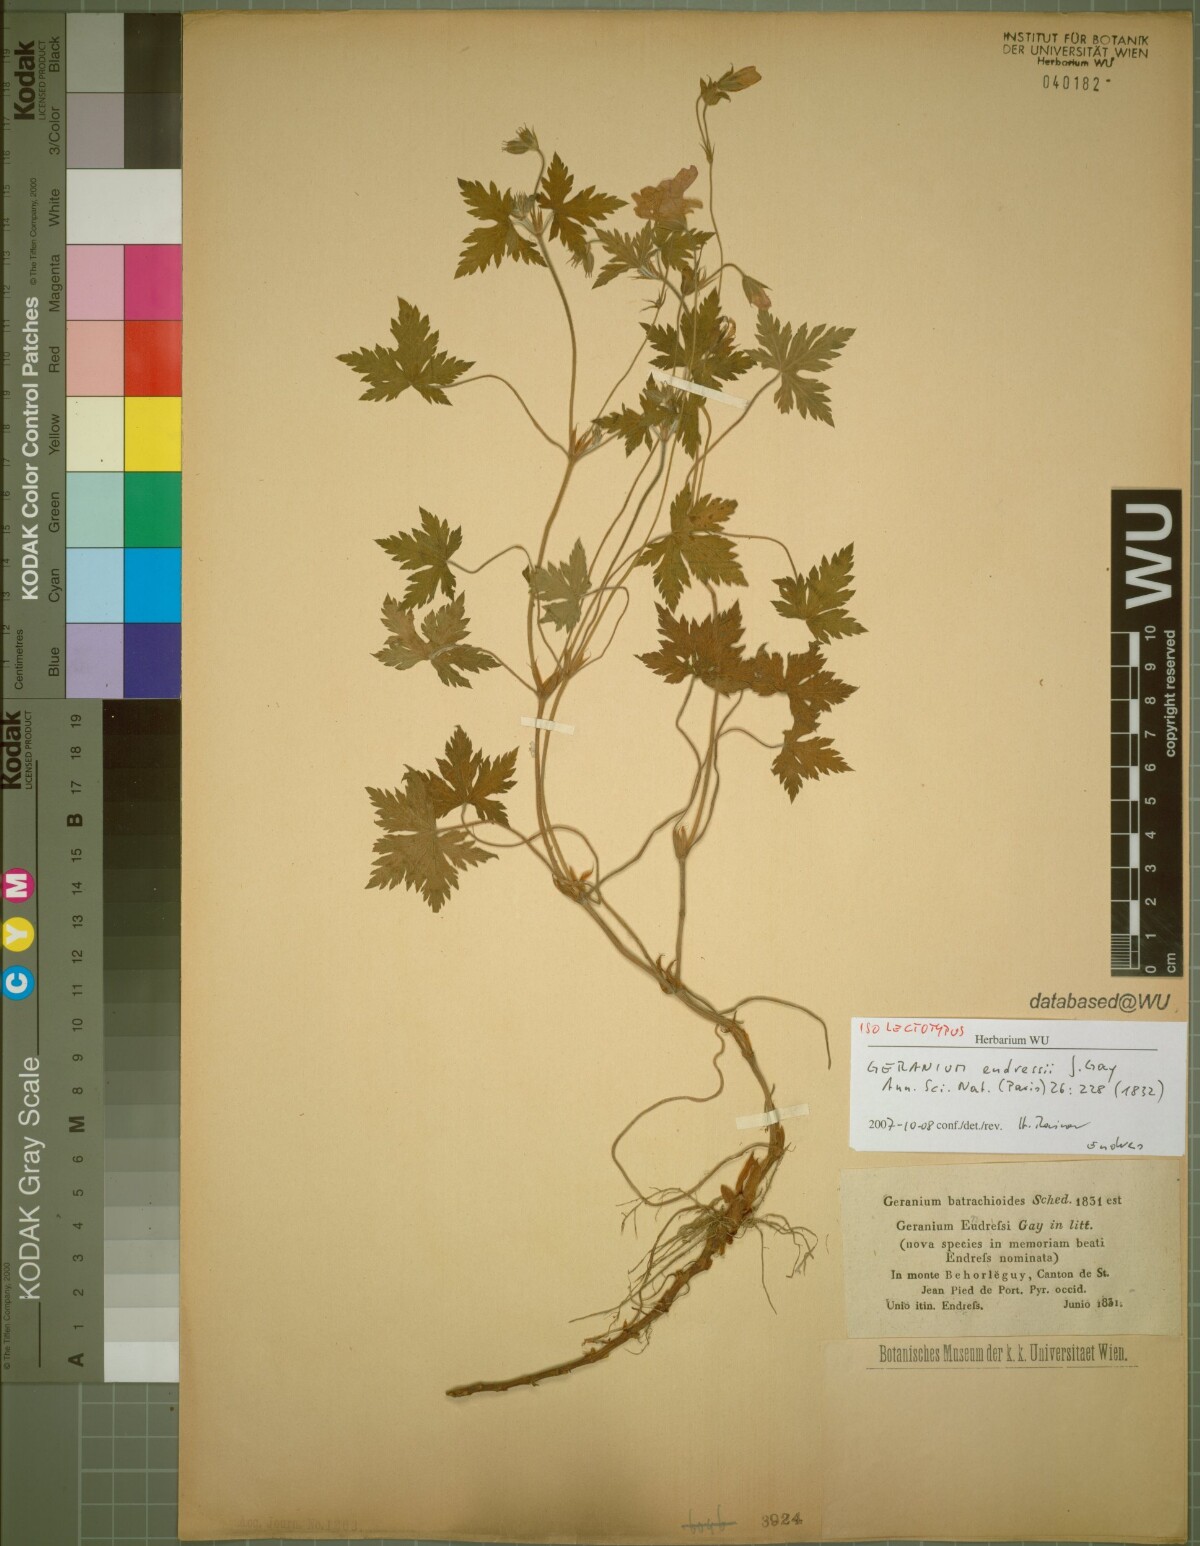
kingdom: Plantae
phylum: Tracheophyta
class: Magnoliopsida
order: Geraniales
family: Geraniaceae
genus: Geranium
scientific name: Geranium endressii
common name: French crane's-bill
